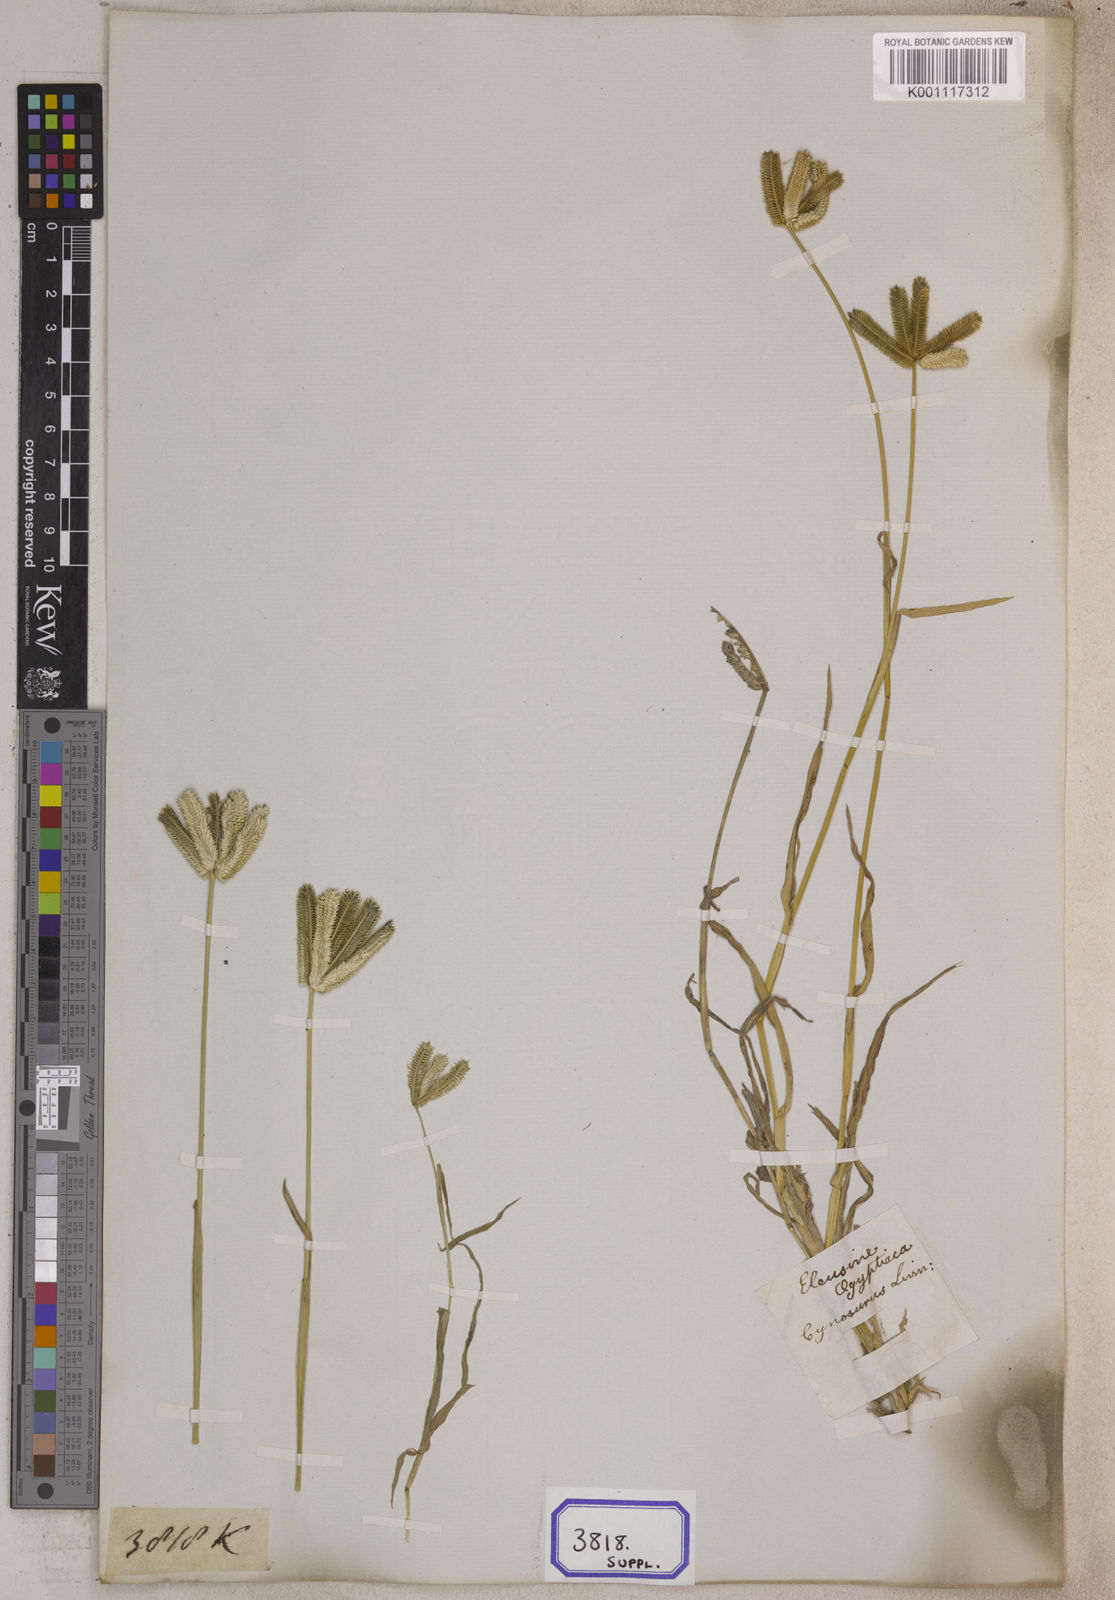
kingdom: Plantae
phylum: Tracheophyta
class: Liliopsida
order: Poales
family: Poaceae
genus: Eleusine
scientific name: Eleusine
